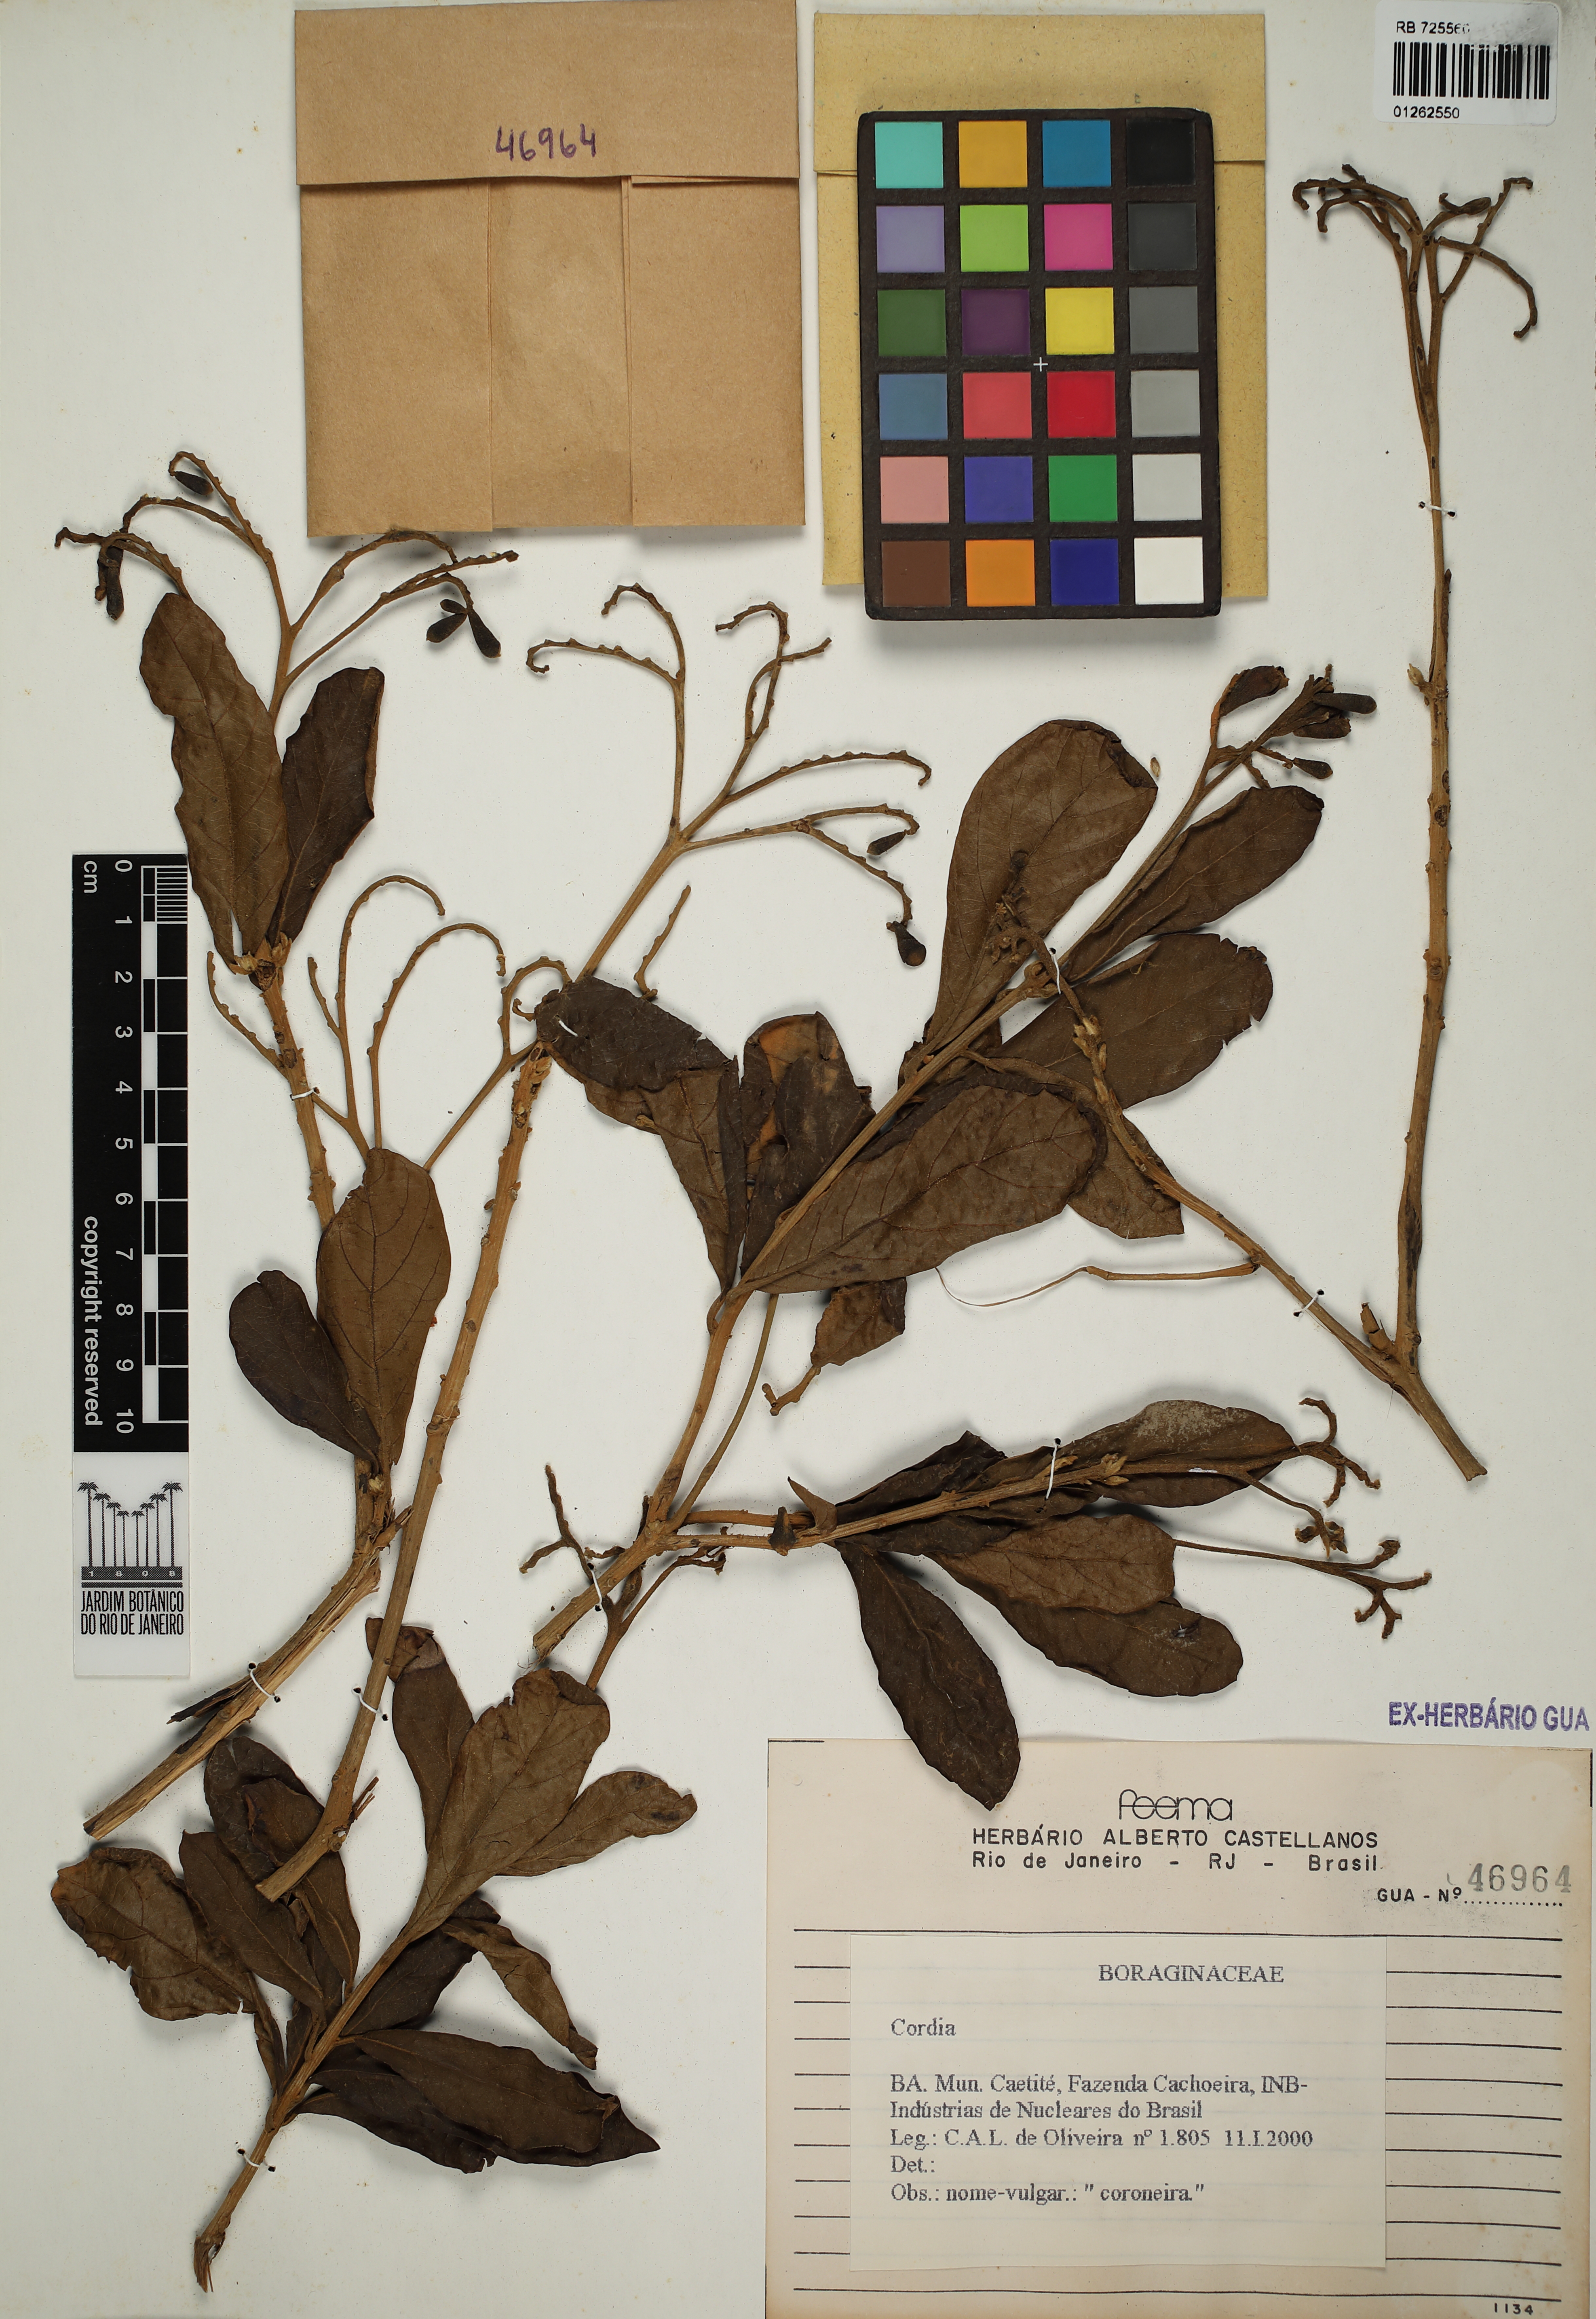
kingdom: Plantae
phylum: Tracheophyta
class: Magnoliopsida
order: Boraginales
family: Cordiaceae
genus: Cordia
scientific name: Cordia
